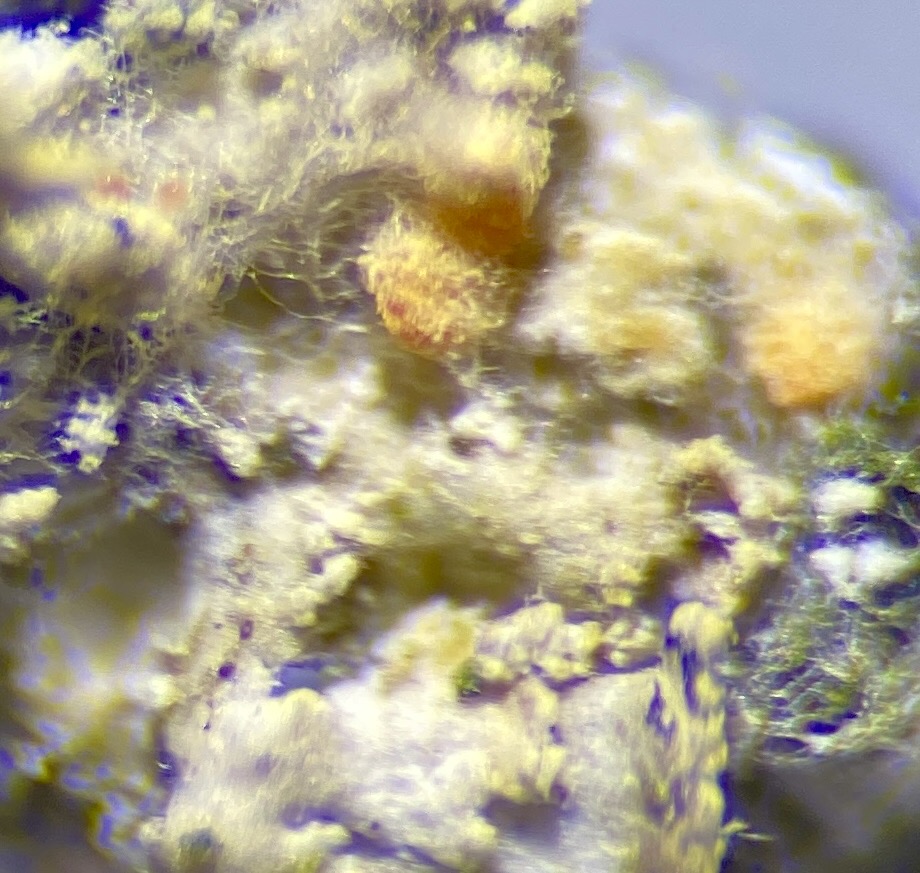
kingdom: Fungi
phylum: Ascomycota
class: Sordariomycetes
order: Hypocreales
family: Bionectriaceae
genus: Paranectria
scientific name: Paranectria oropensis
